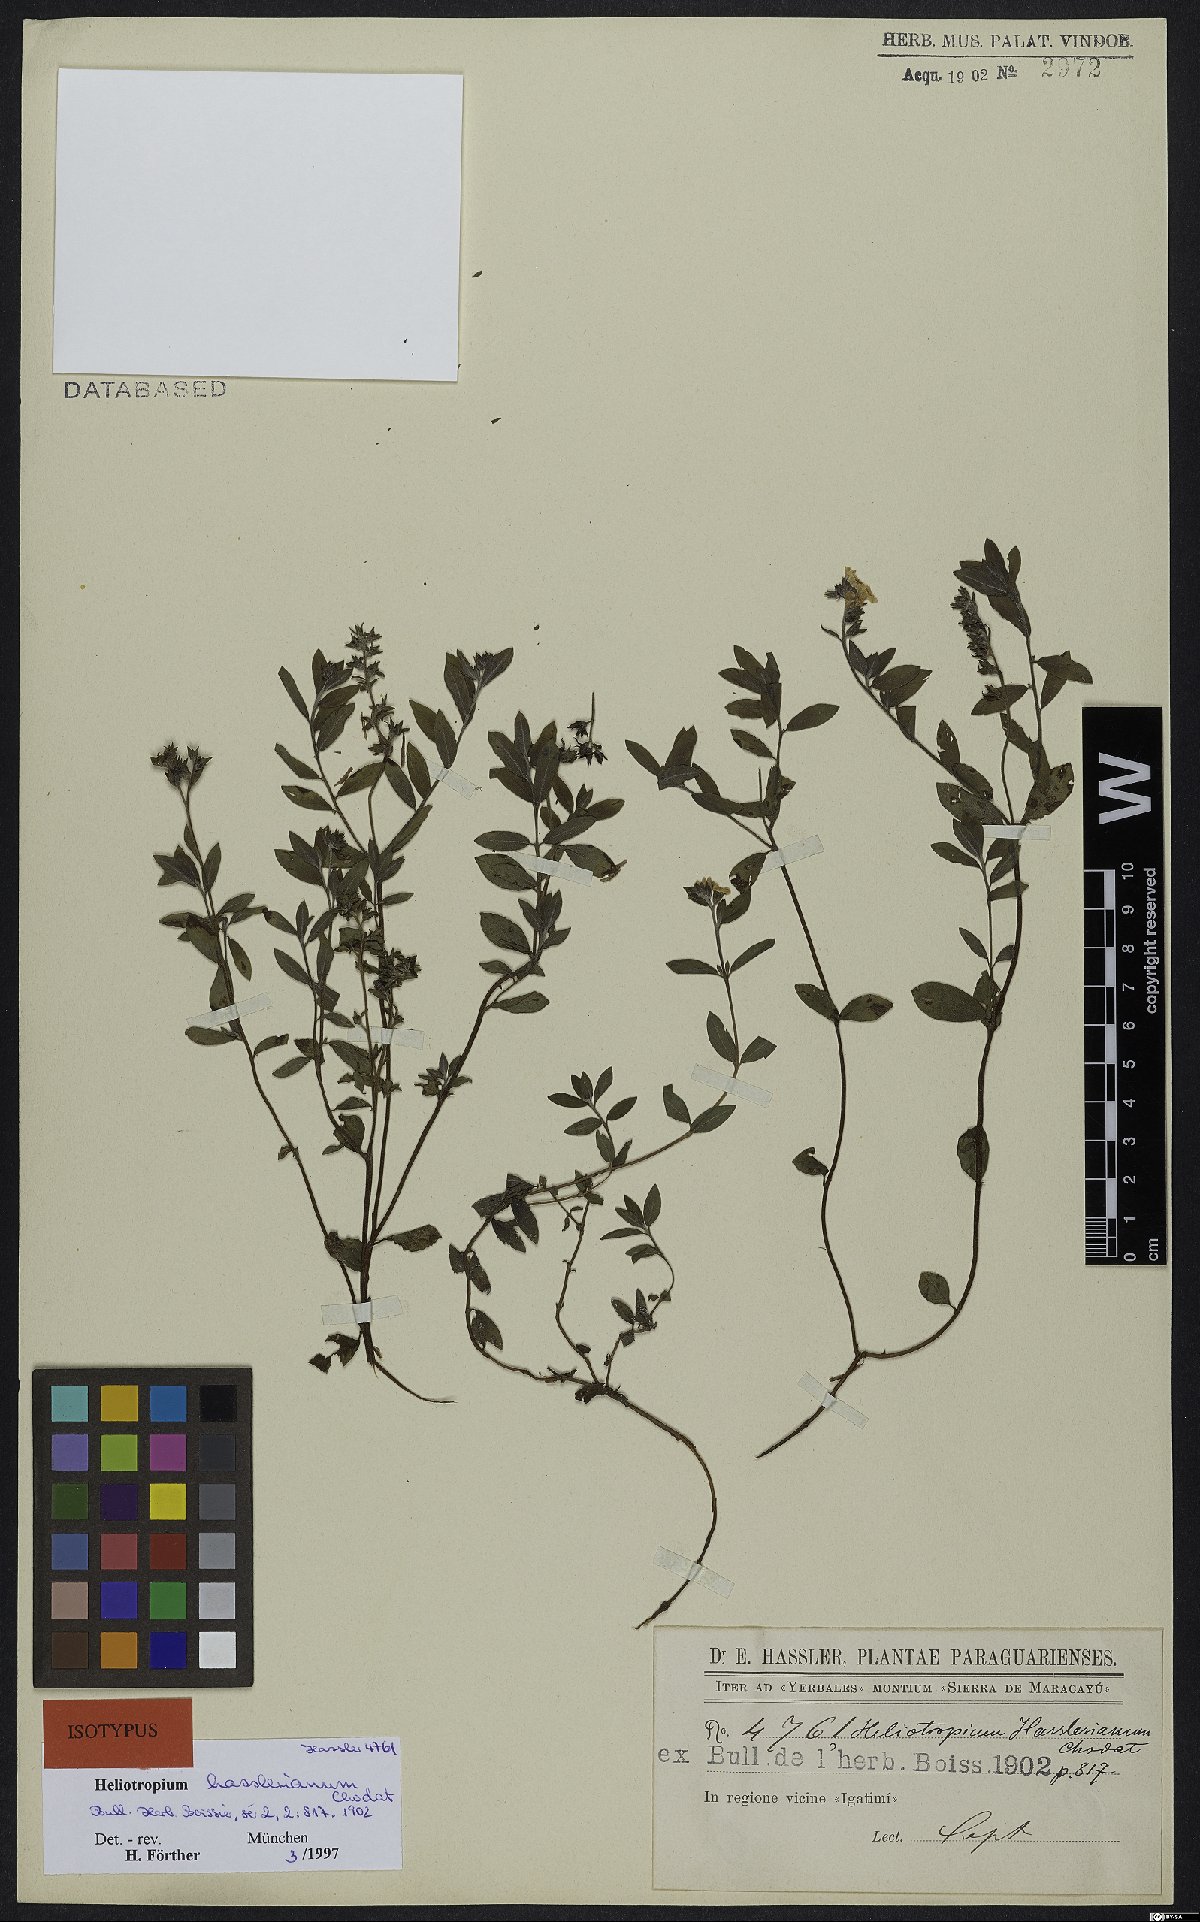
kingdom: Plantae
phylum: Tracheophyta
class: Magnoliopsida
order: Boraginales
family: Heliotropiaceae
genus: Euploca
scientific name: Euploca hassleriana
